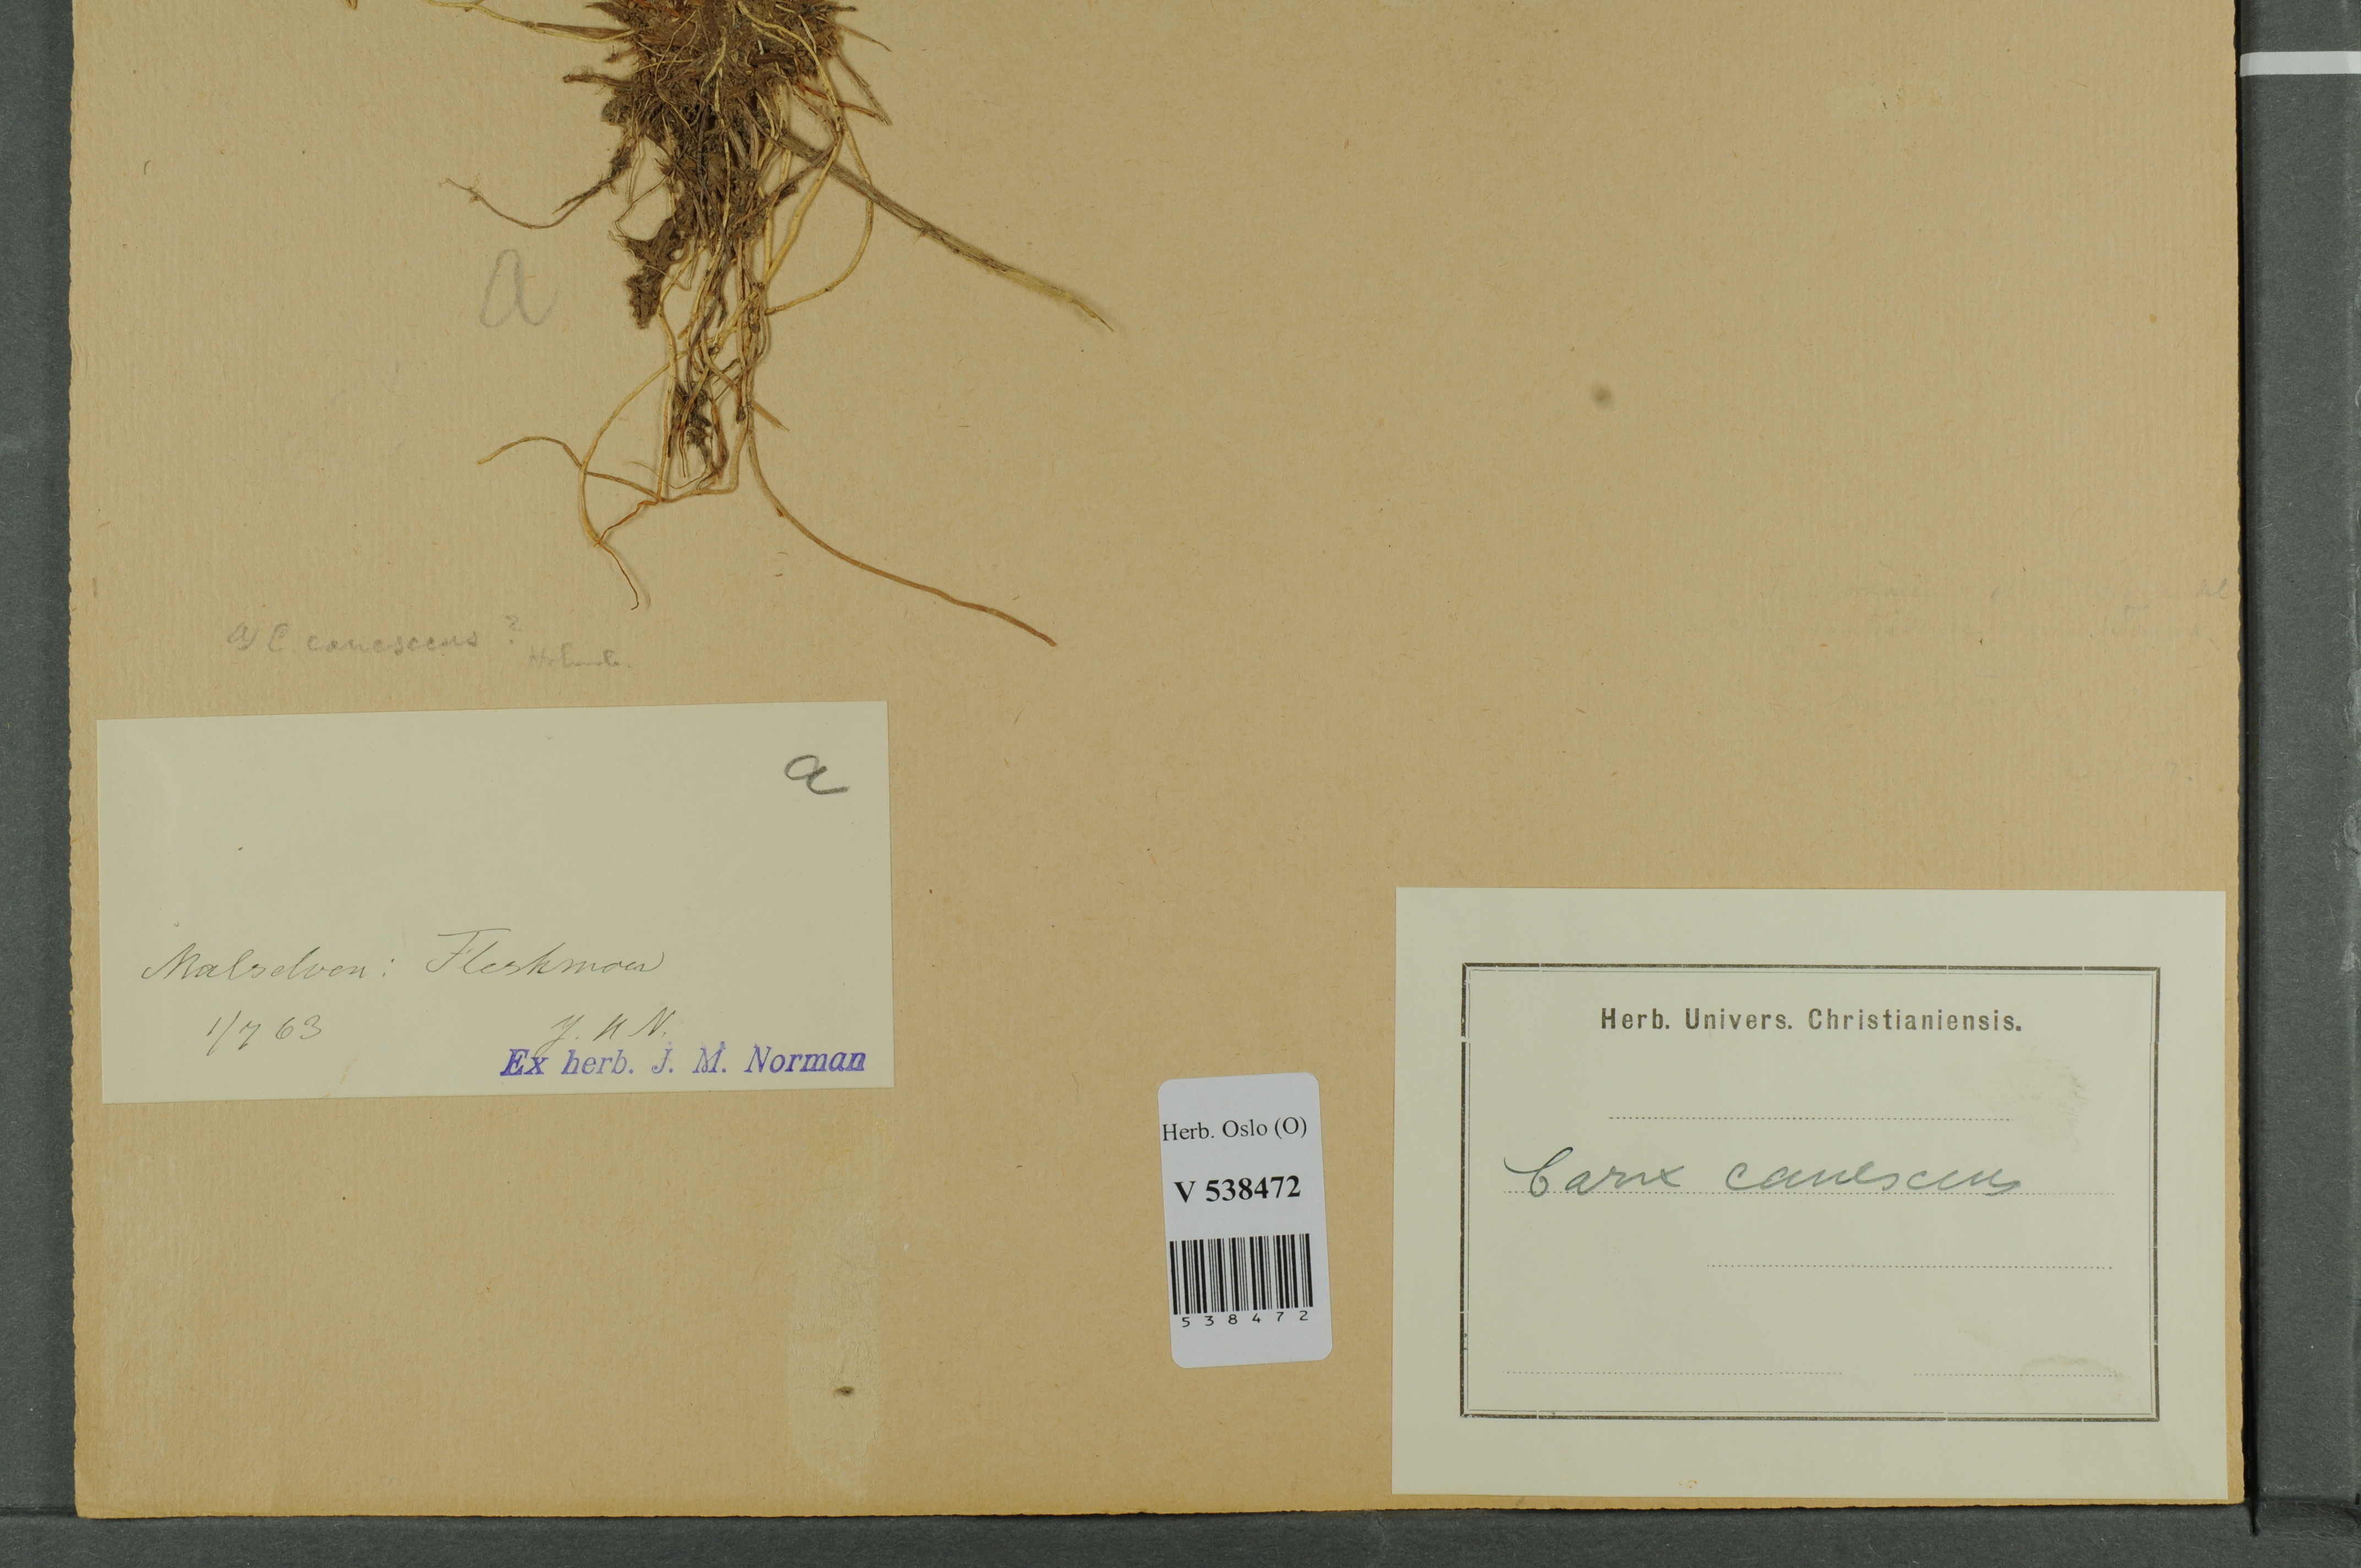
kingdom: Plantae
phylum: Tracheophyta
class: Liliopsida
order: Poales
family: Cyperaceae
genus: Carex
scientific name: Carex canescens
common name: White sedge
